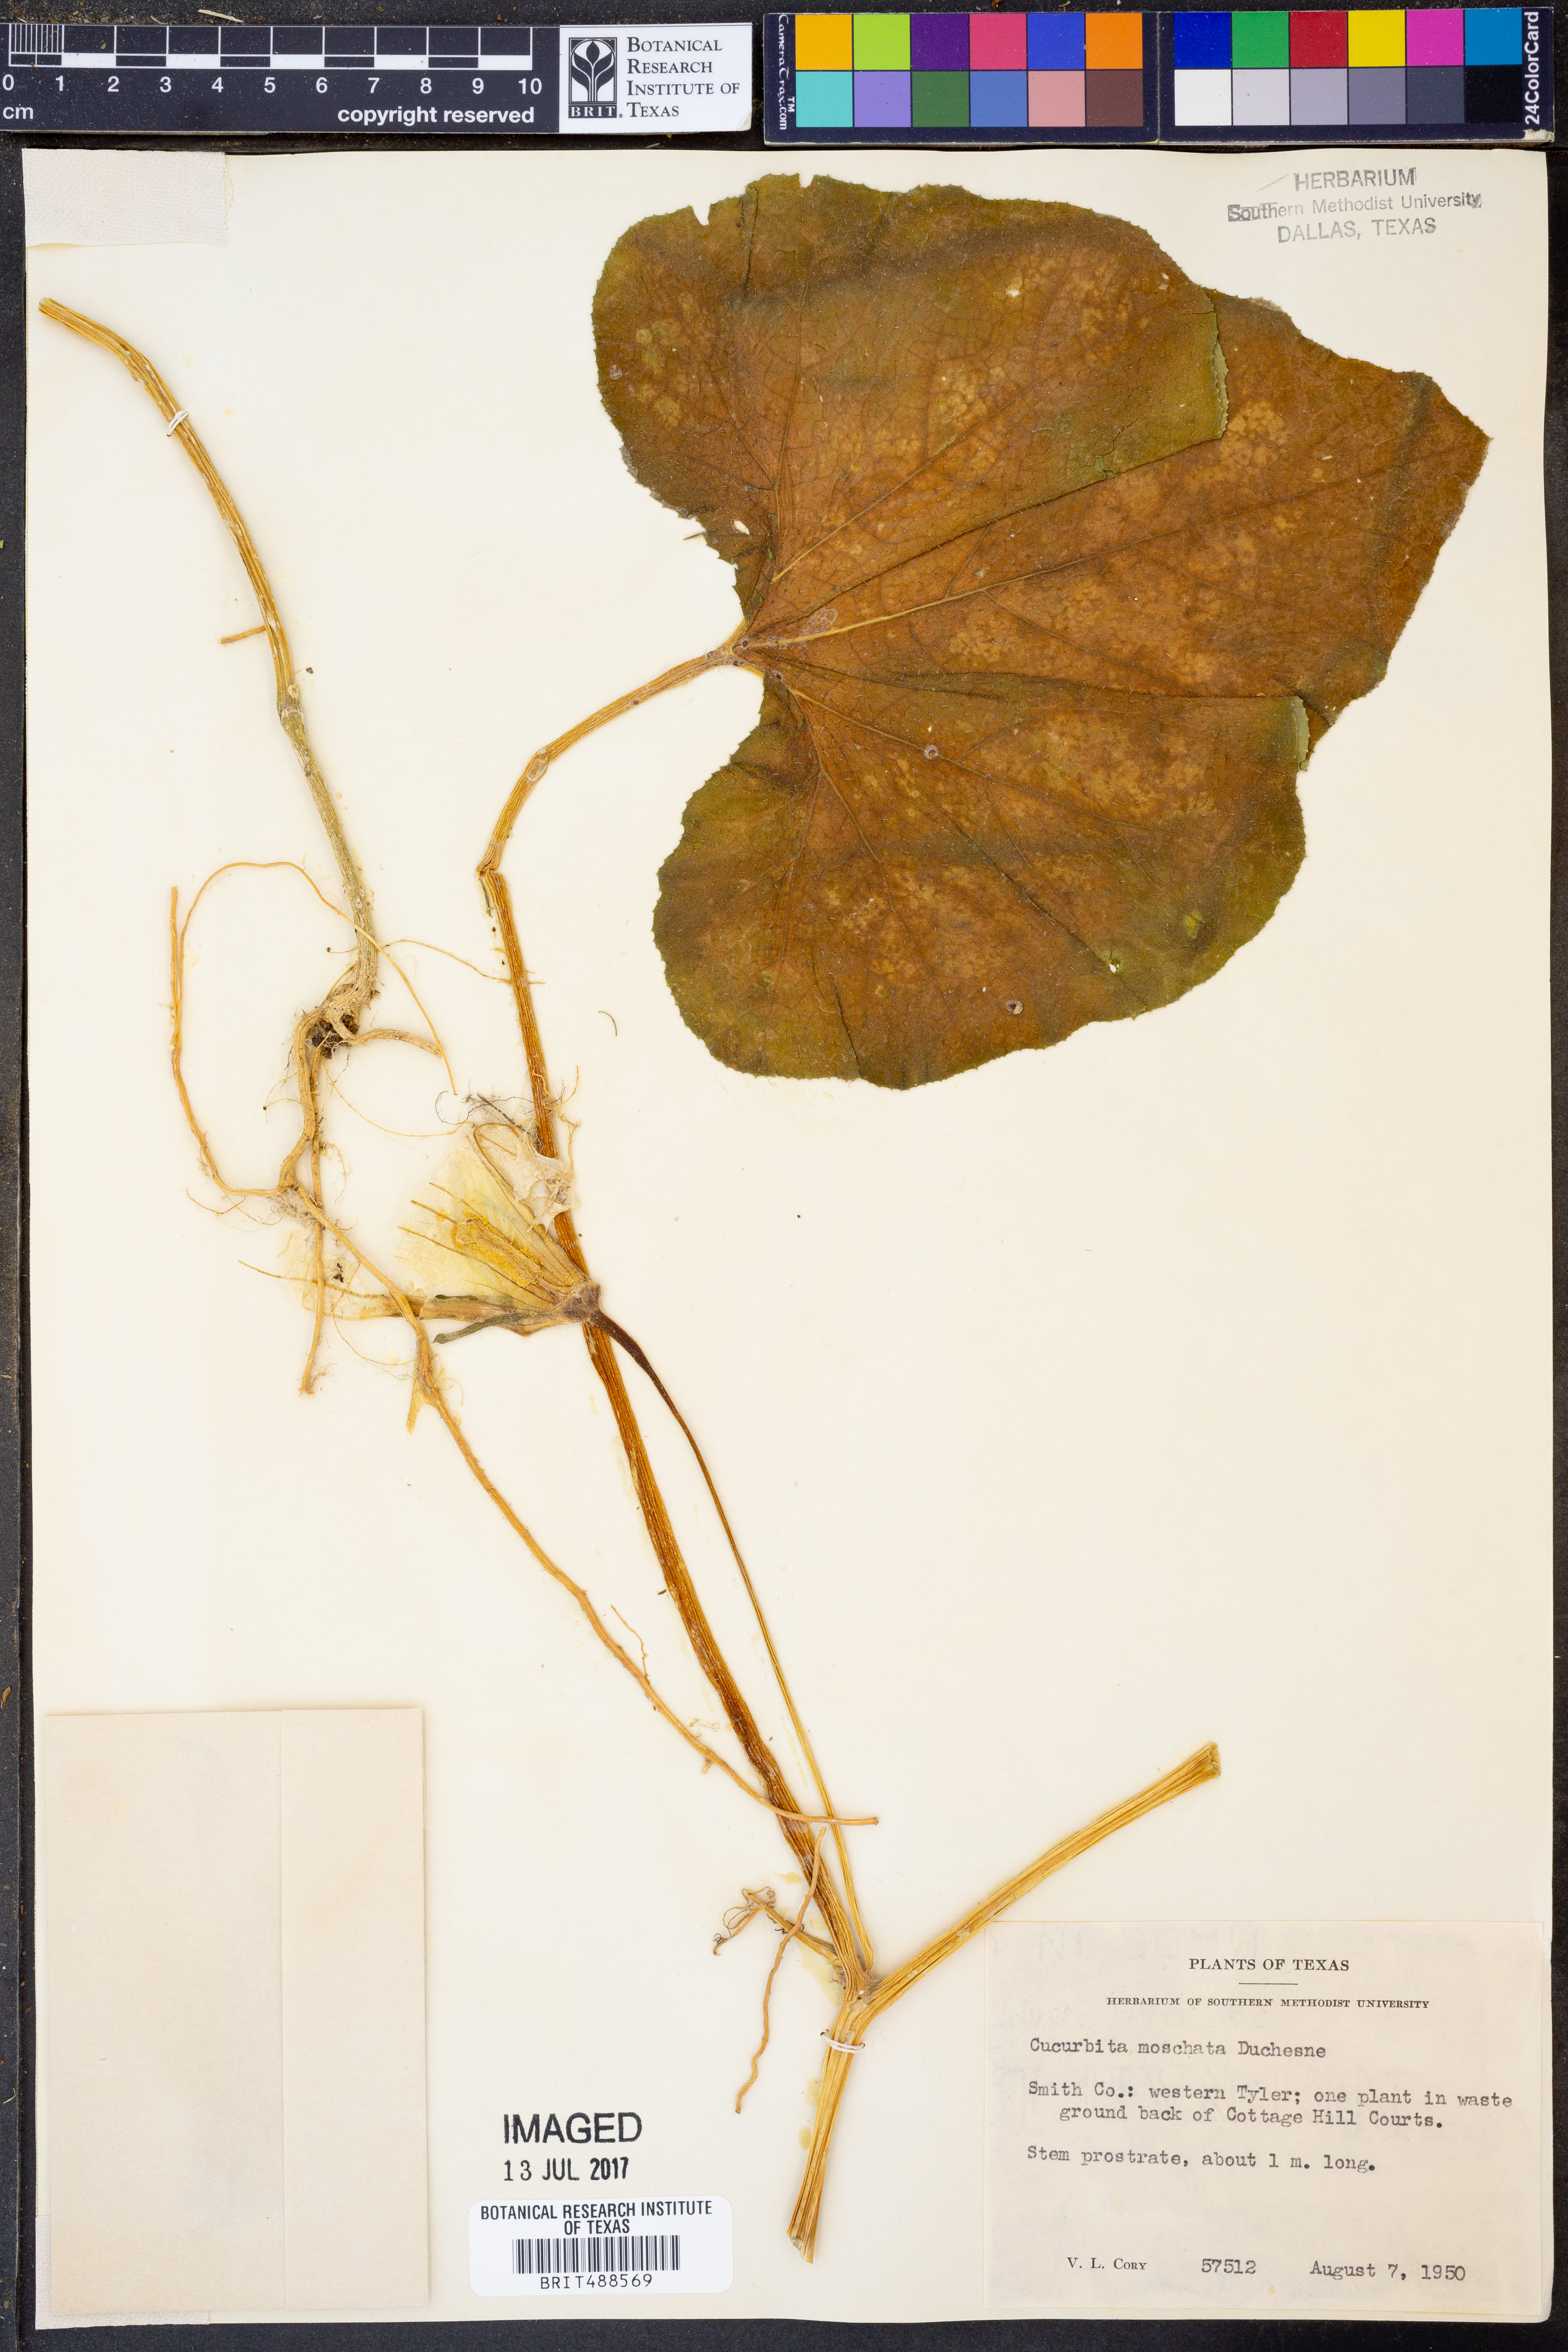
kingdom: Plantae
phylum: Tracheophyta
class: Magnoliopsida
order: Cucurbitales
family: Cucurbitaceae
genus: Cucurbita
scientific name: Cucurbita moschata
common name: Squash / pumpkin
